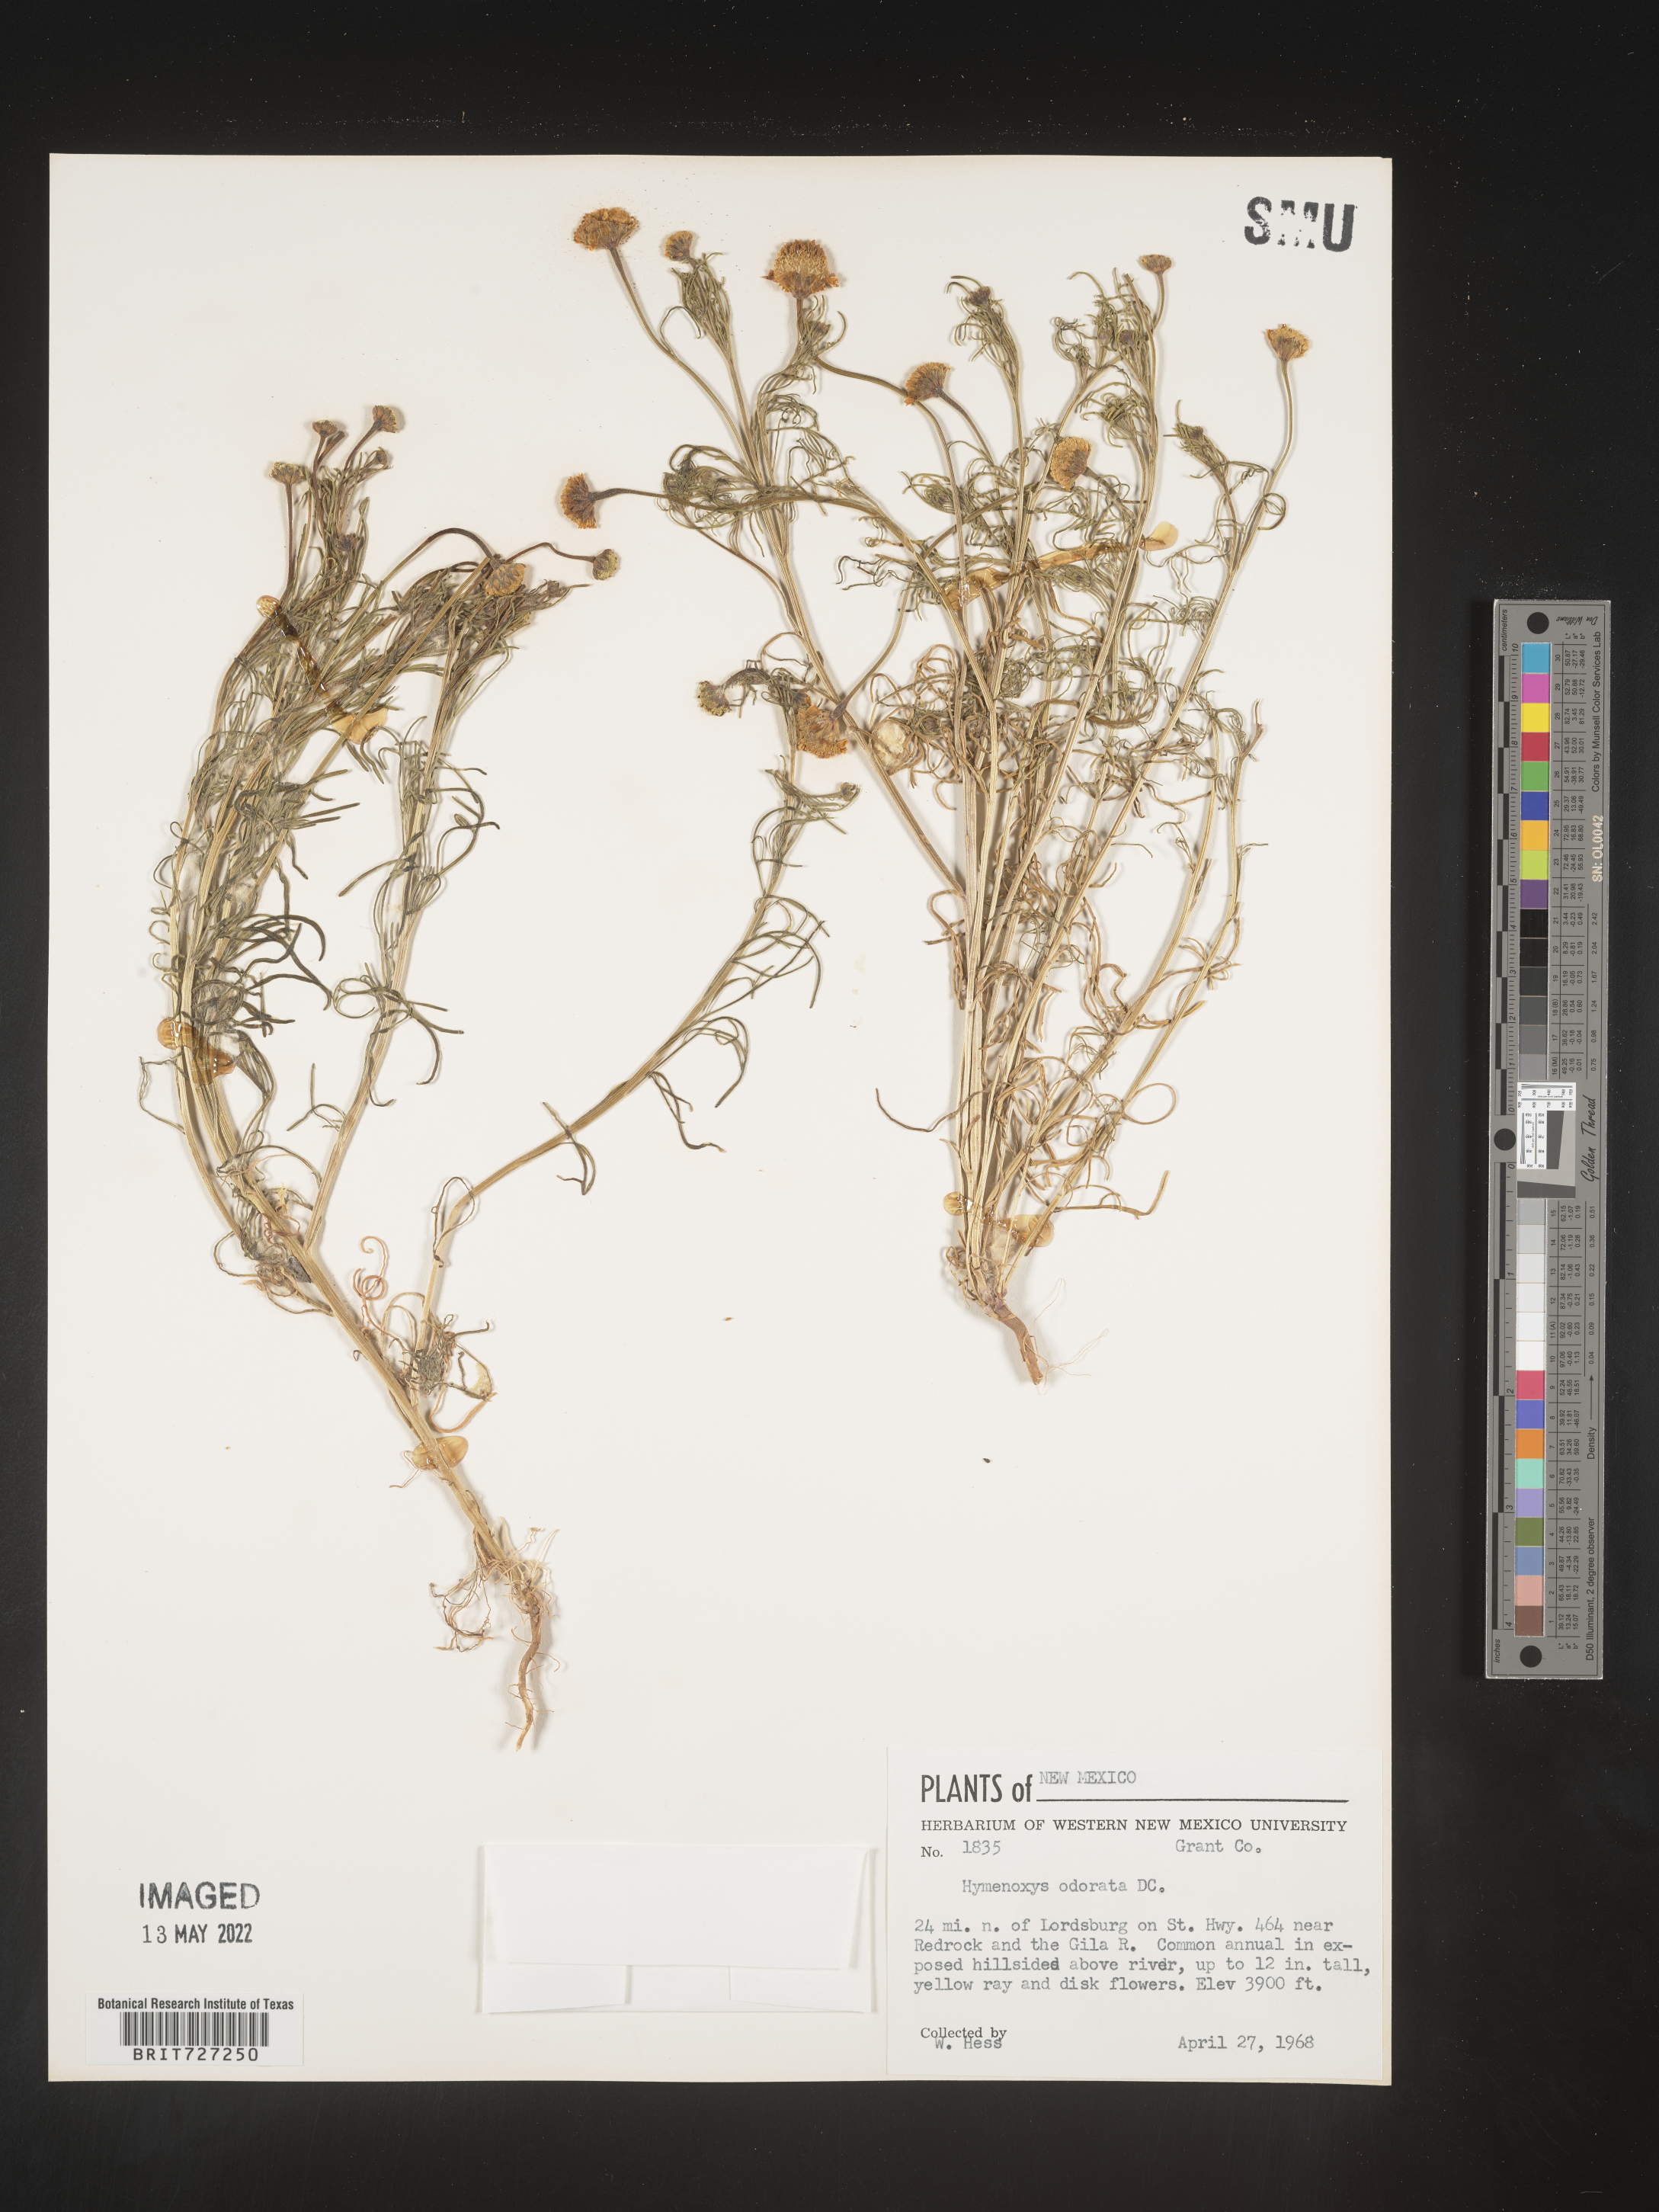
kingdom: Plantae
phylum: Tracheophyta
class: Magnoliopsida
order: Asterales
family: Asteraceae
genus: Hymenoxys
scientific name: Hymenoxys odorata
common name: Bitter rubberweed
